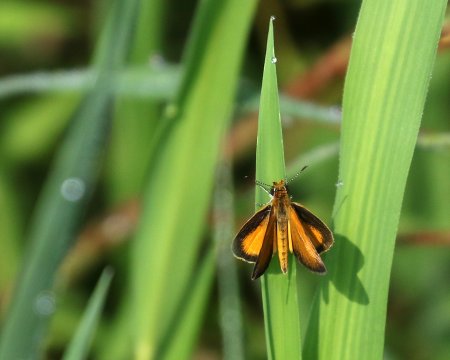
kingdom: Animalia
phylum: Arthropoda
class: Insecta
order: Lepidoptera
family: Hesperiidae
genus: Ancyloxypha
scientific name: Ancyloxypha numitor
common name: Least Skipper
